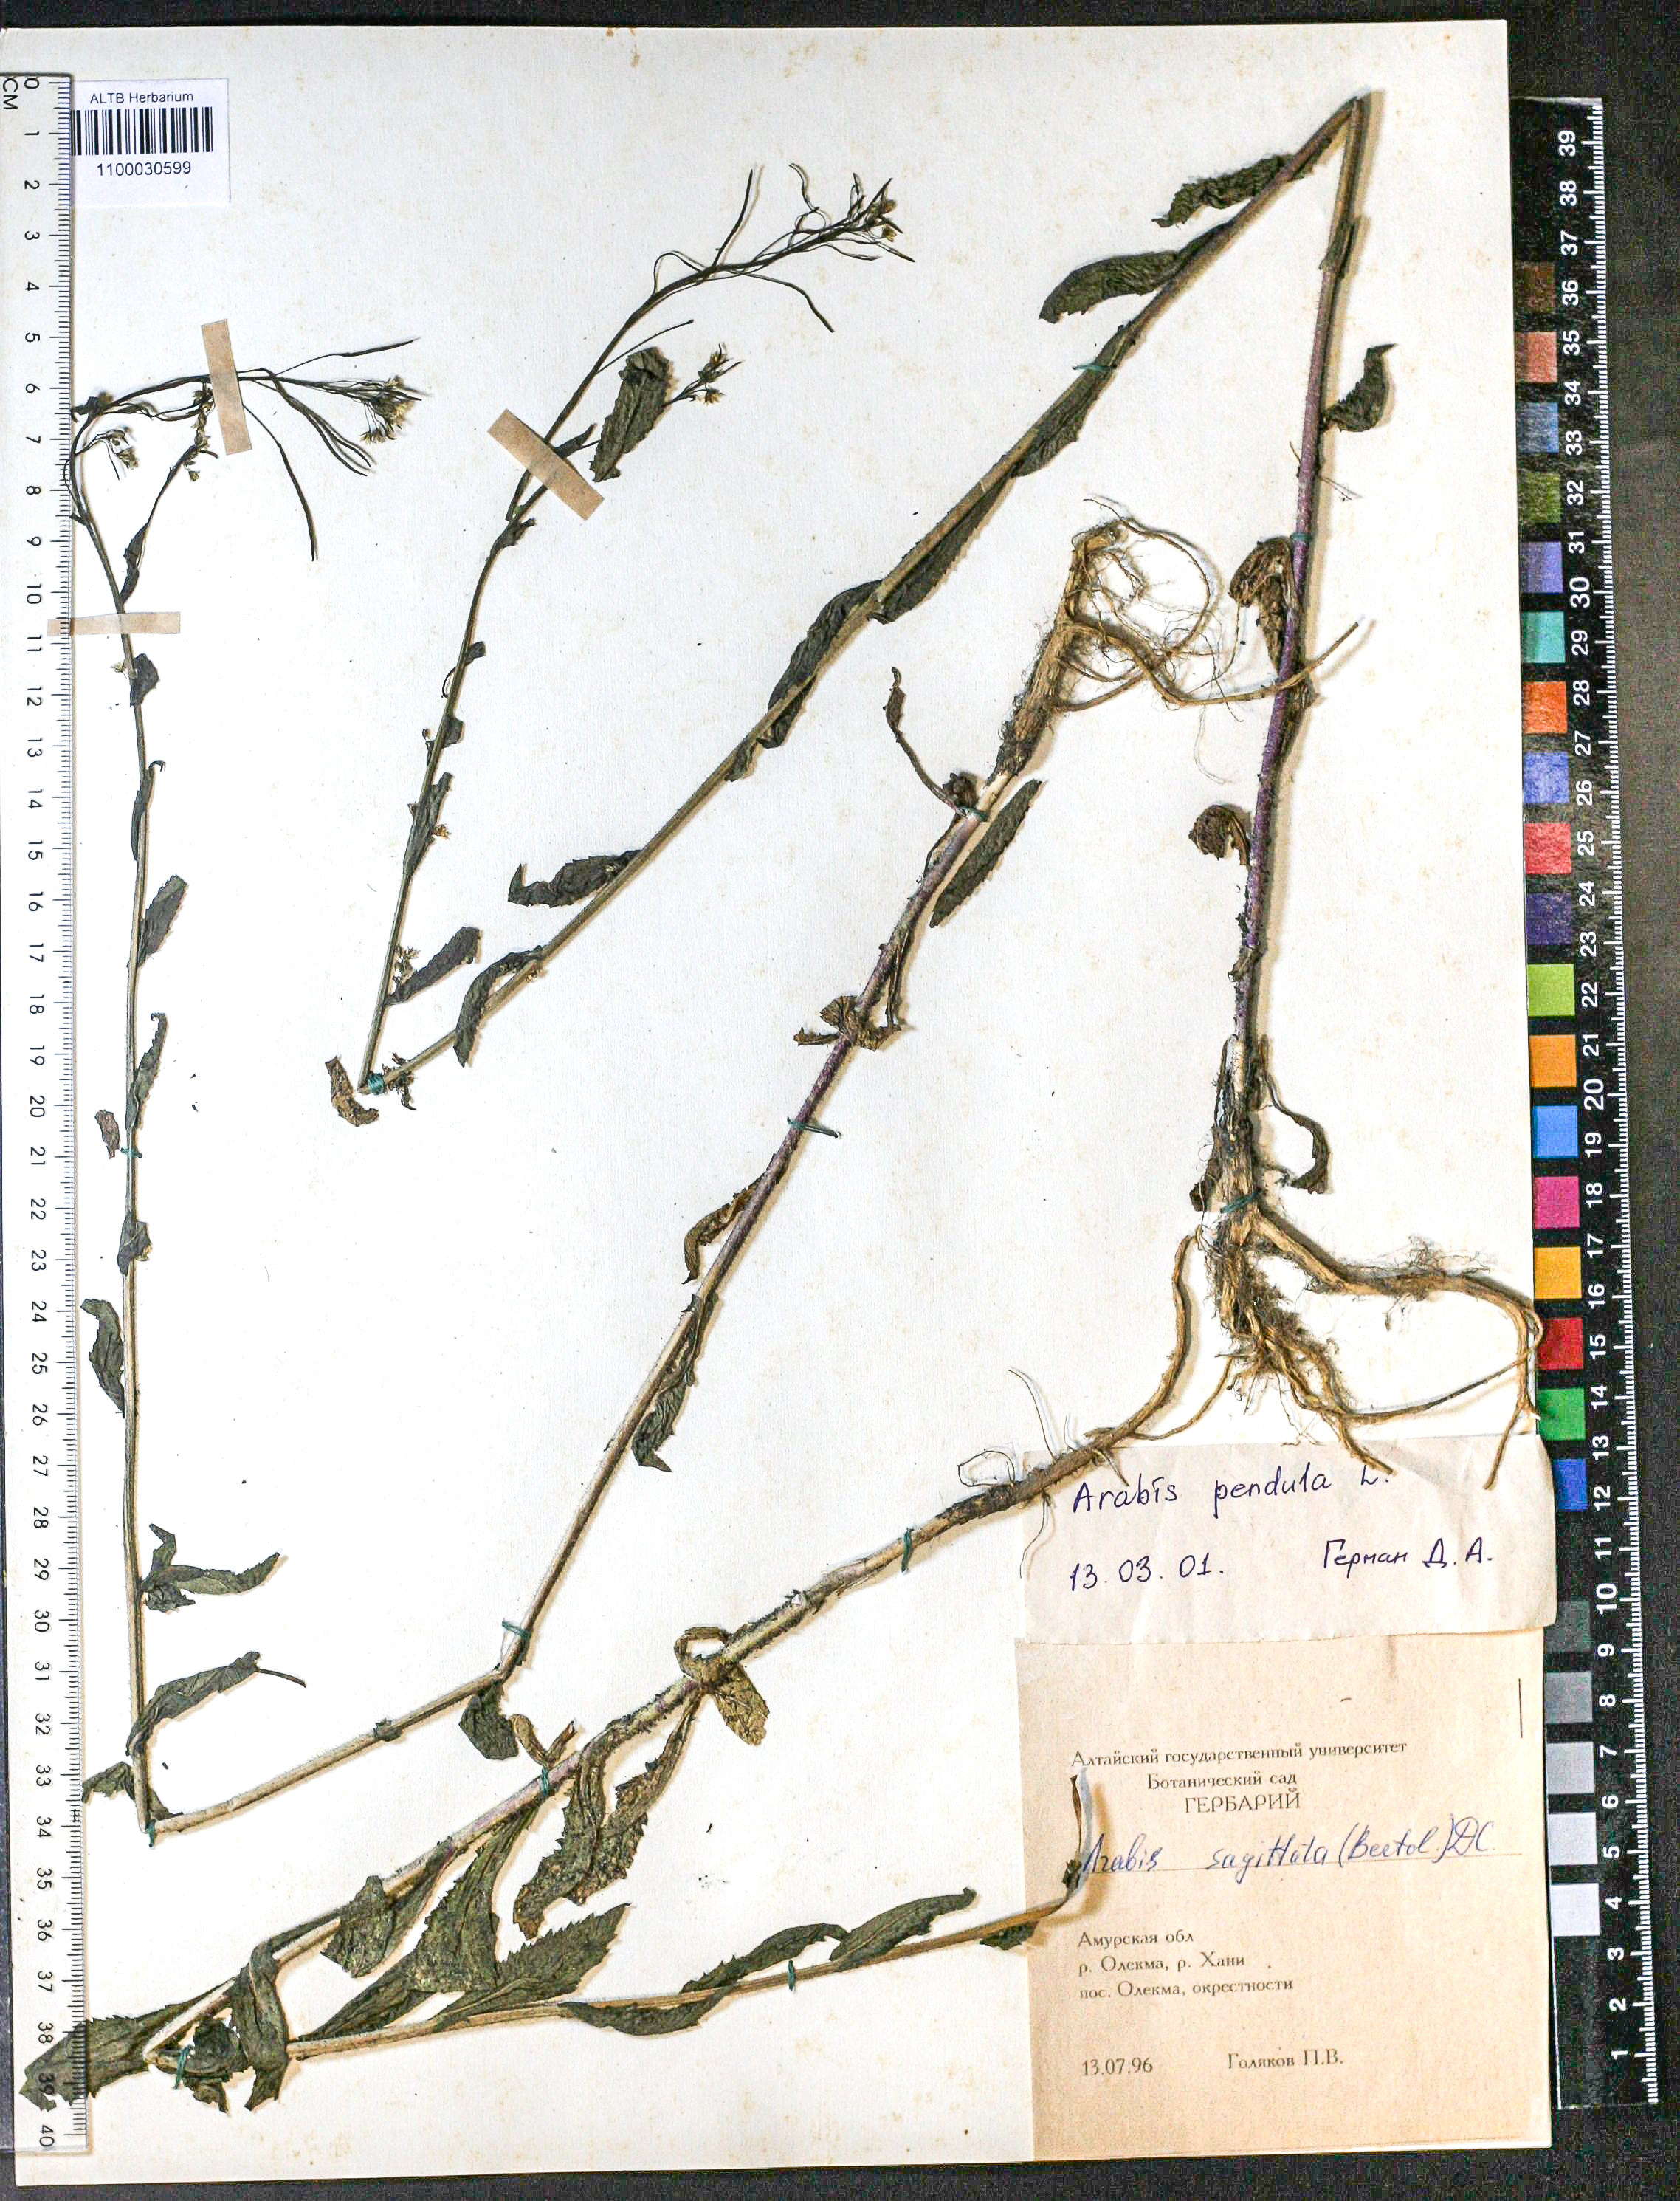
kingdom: Plantae
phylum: Tracheophyta
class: Magnoliopsida
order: Brassicales
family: Brassicaceae
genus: Catolobus
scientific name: Catolobus pendulus
